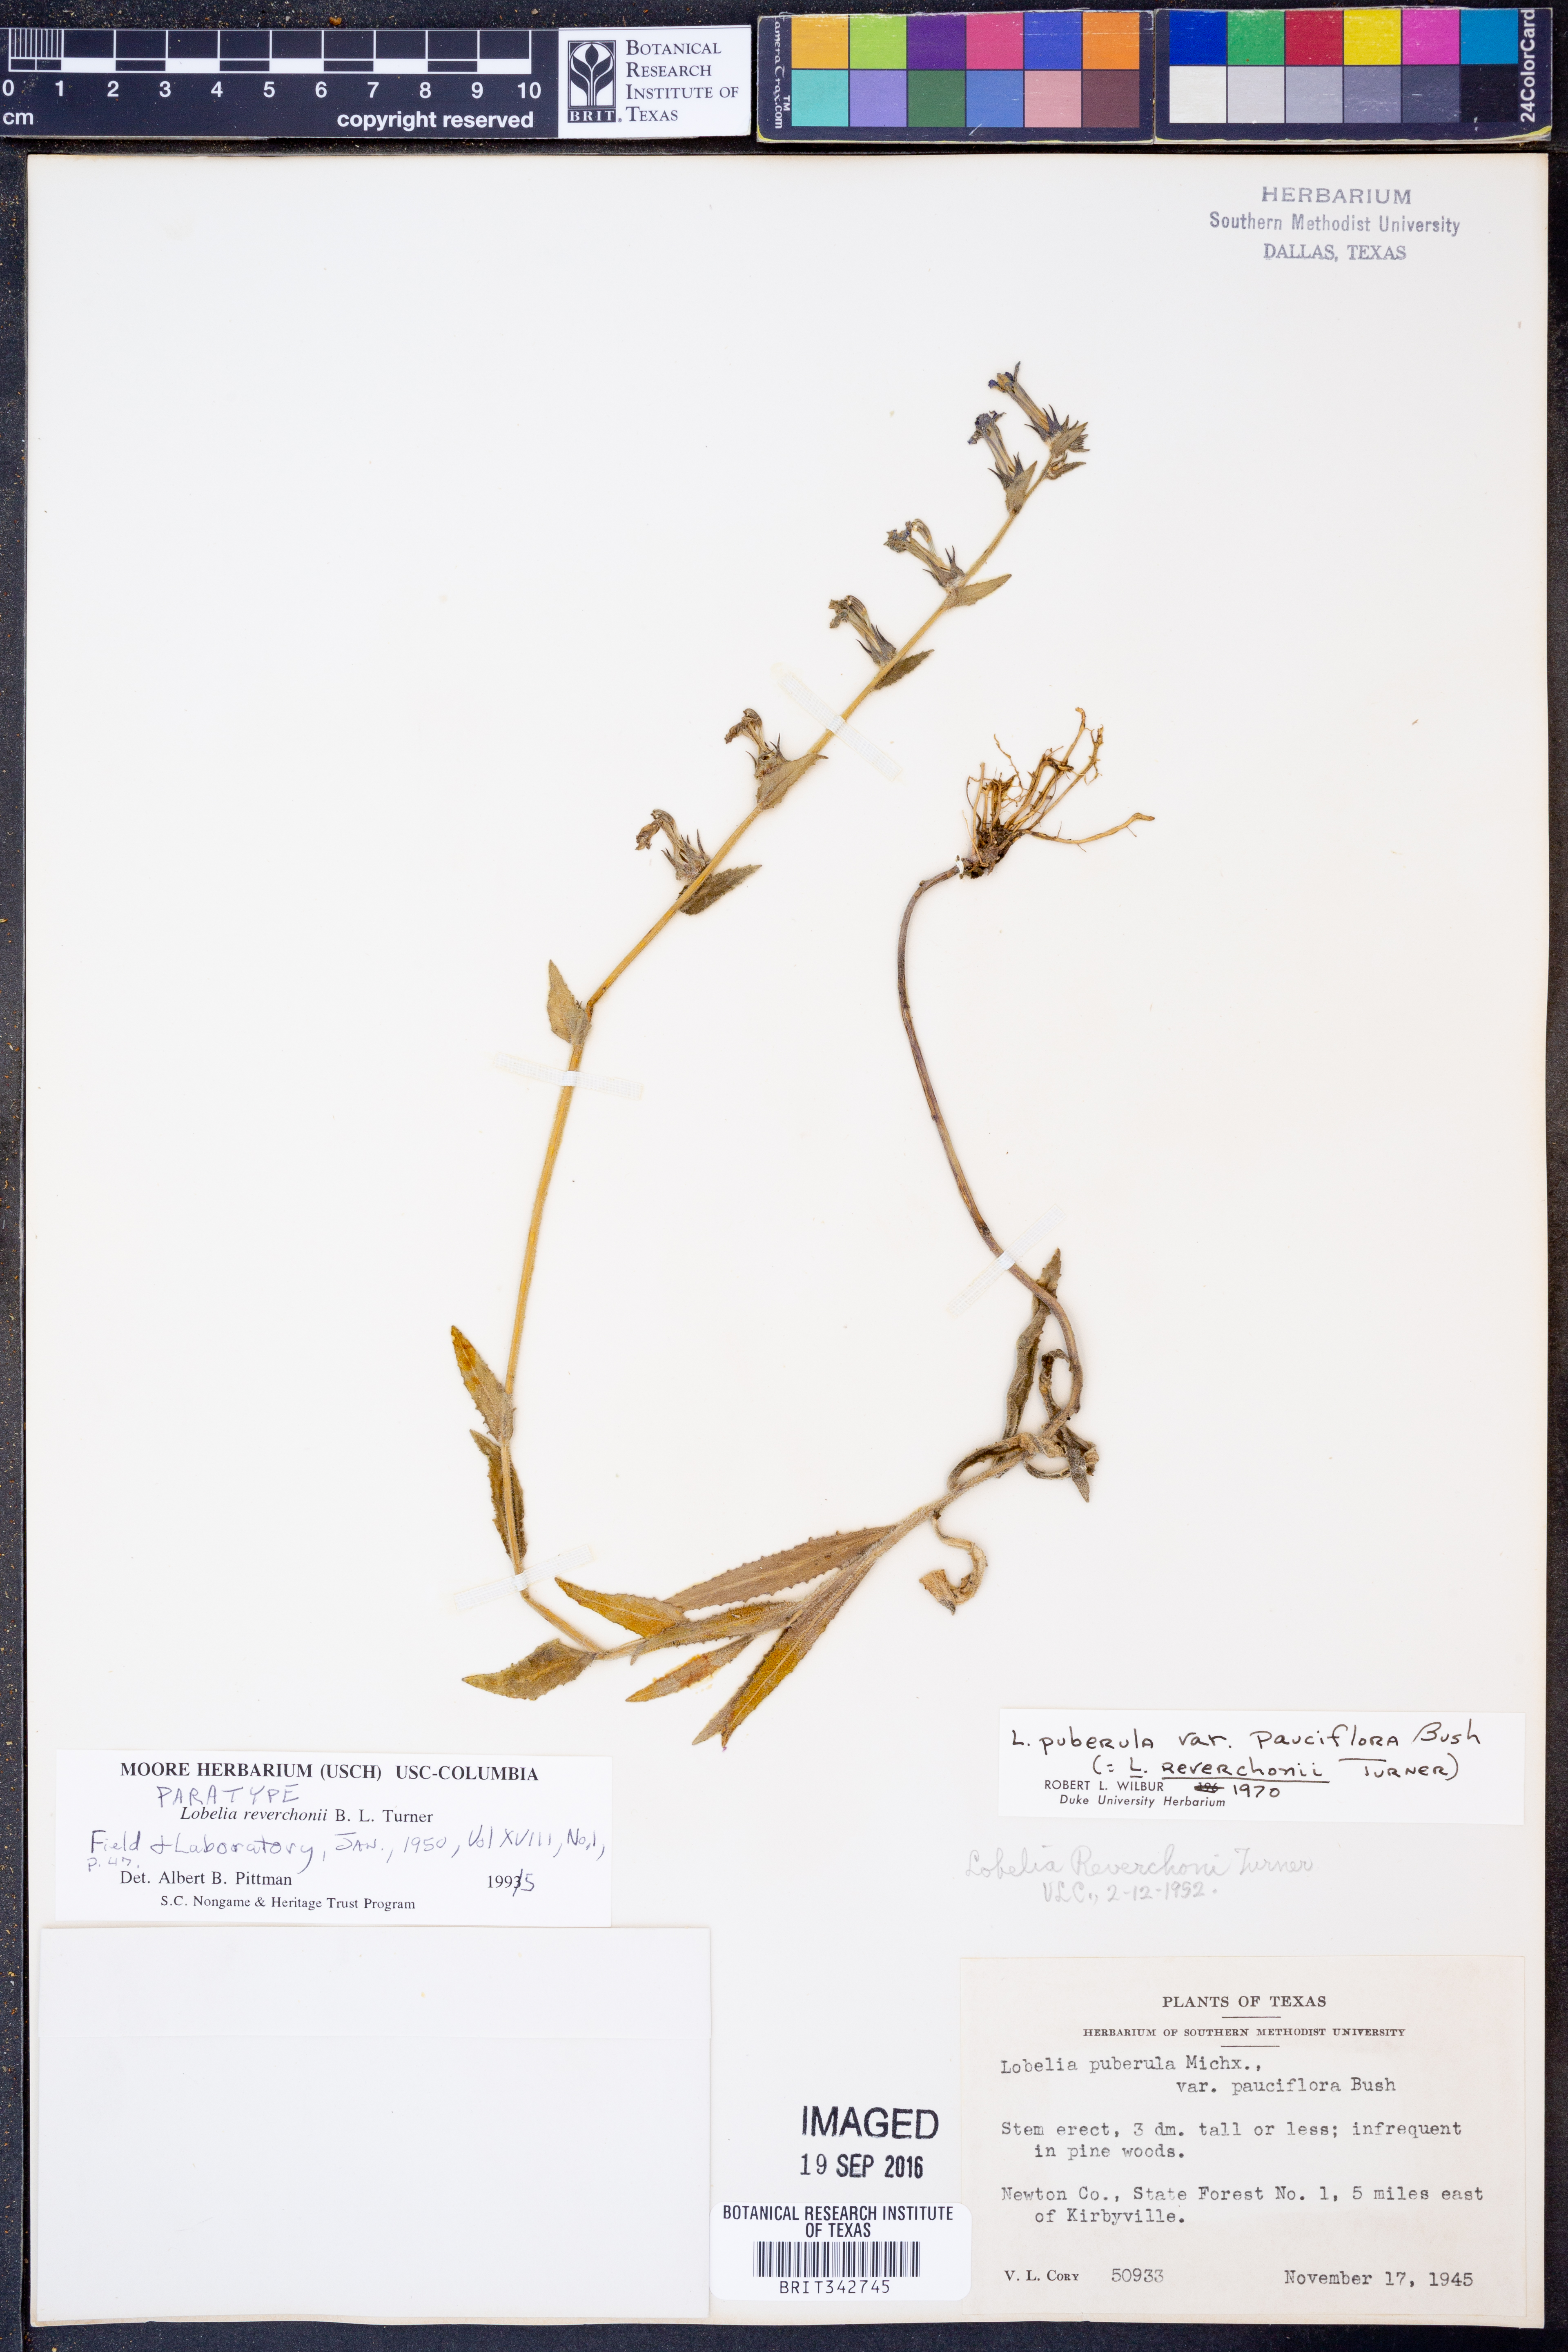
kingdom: Plantae
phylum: Tracheophyta
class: Magnoliopsida
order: Asterales
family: Campanulaceae
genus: Lobelia
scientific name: Lobelia reverchonii
